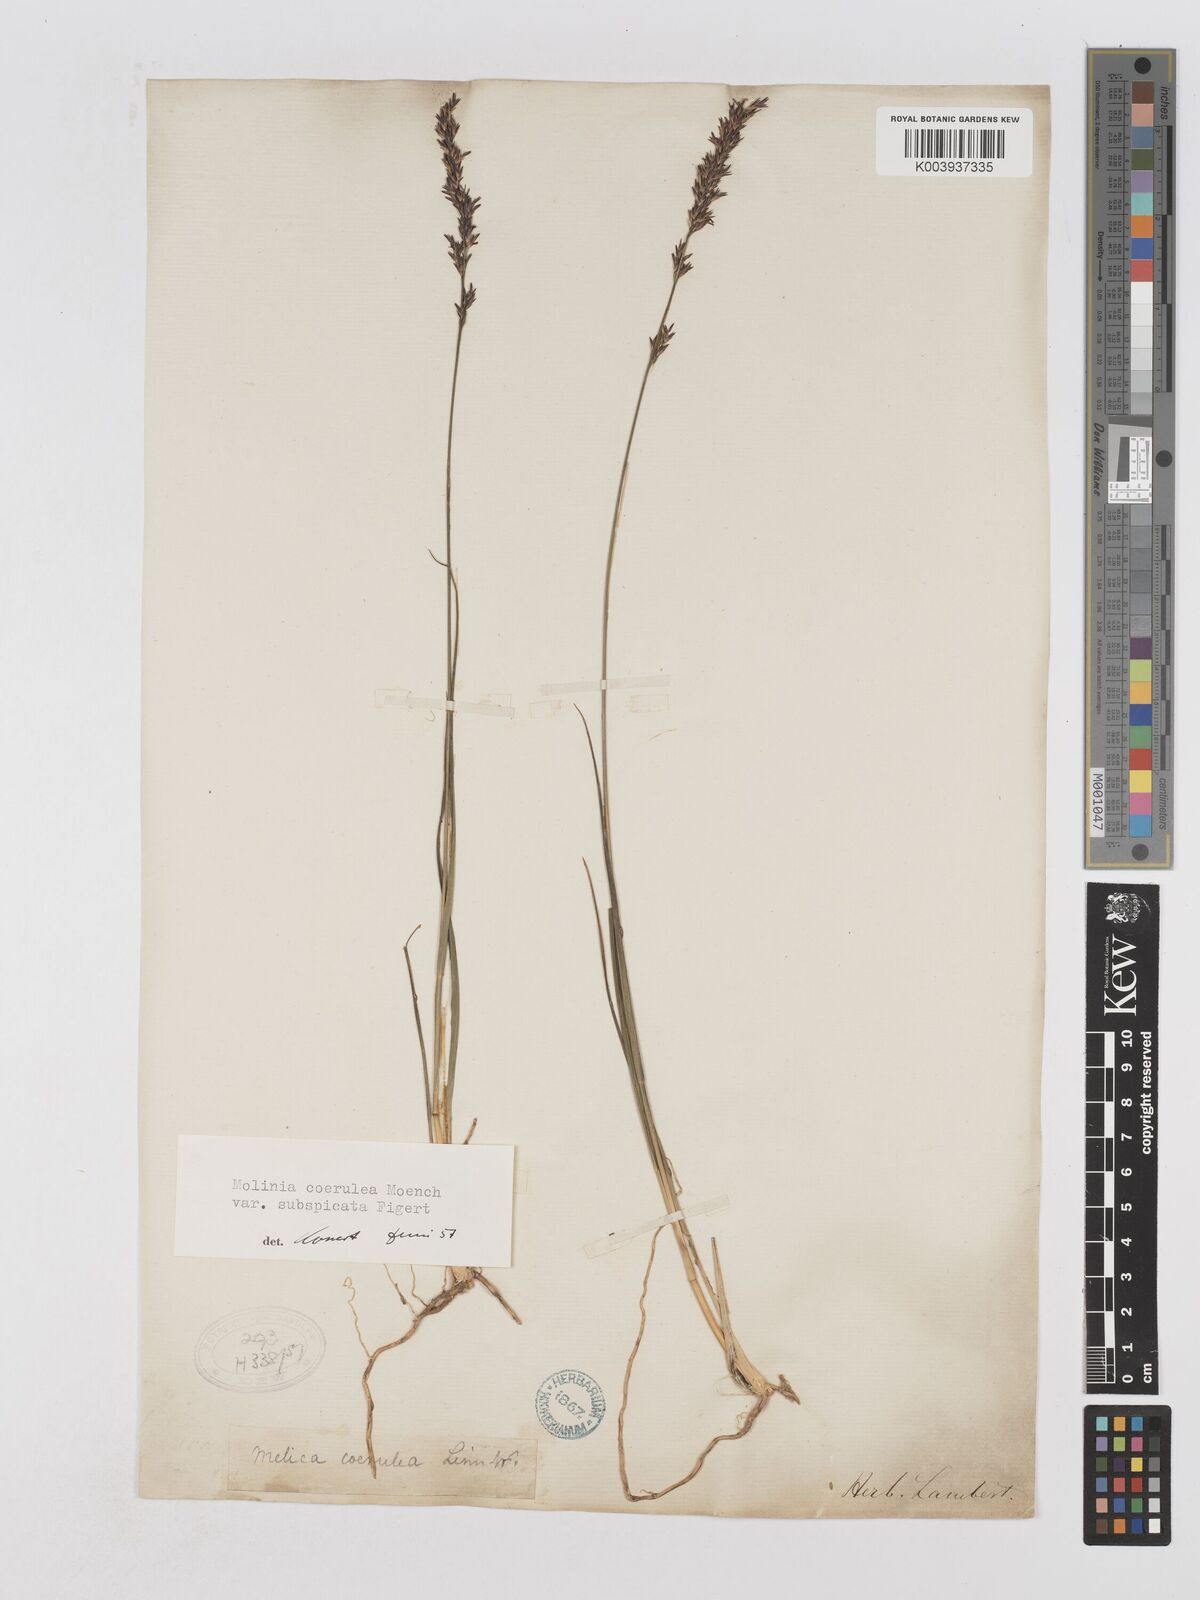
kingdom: Plantae
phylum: Tracheophyta
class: Liliopsida
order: Poales
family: Poaceae
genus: Molinia
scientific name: Molinia caerulea
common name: Purple moor-grass
